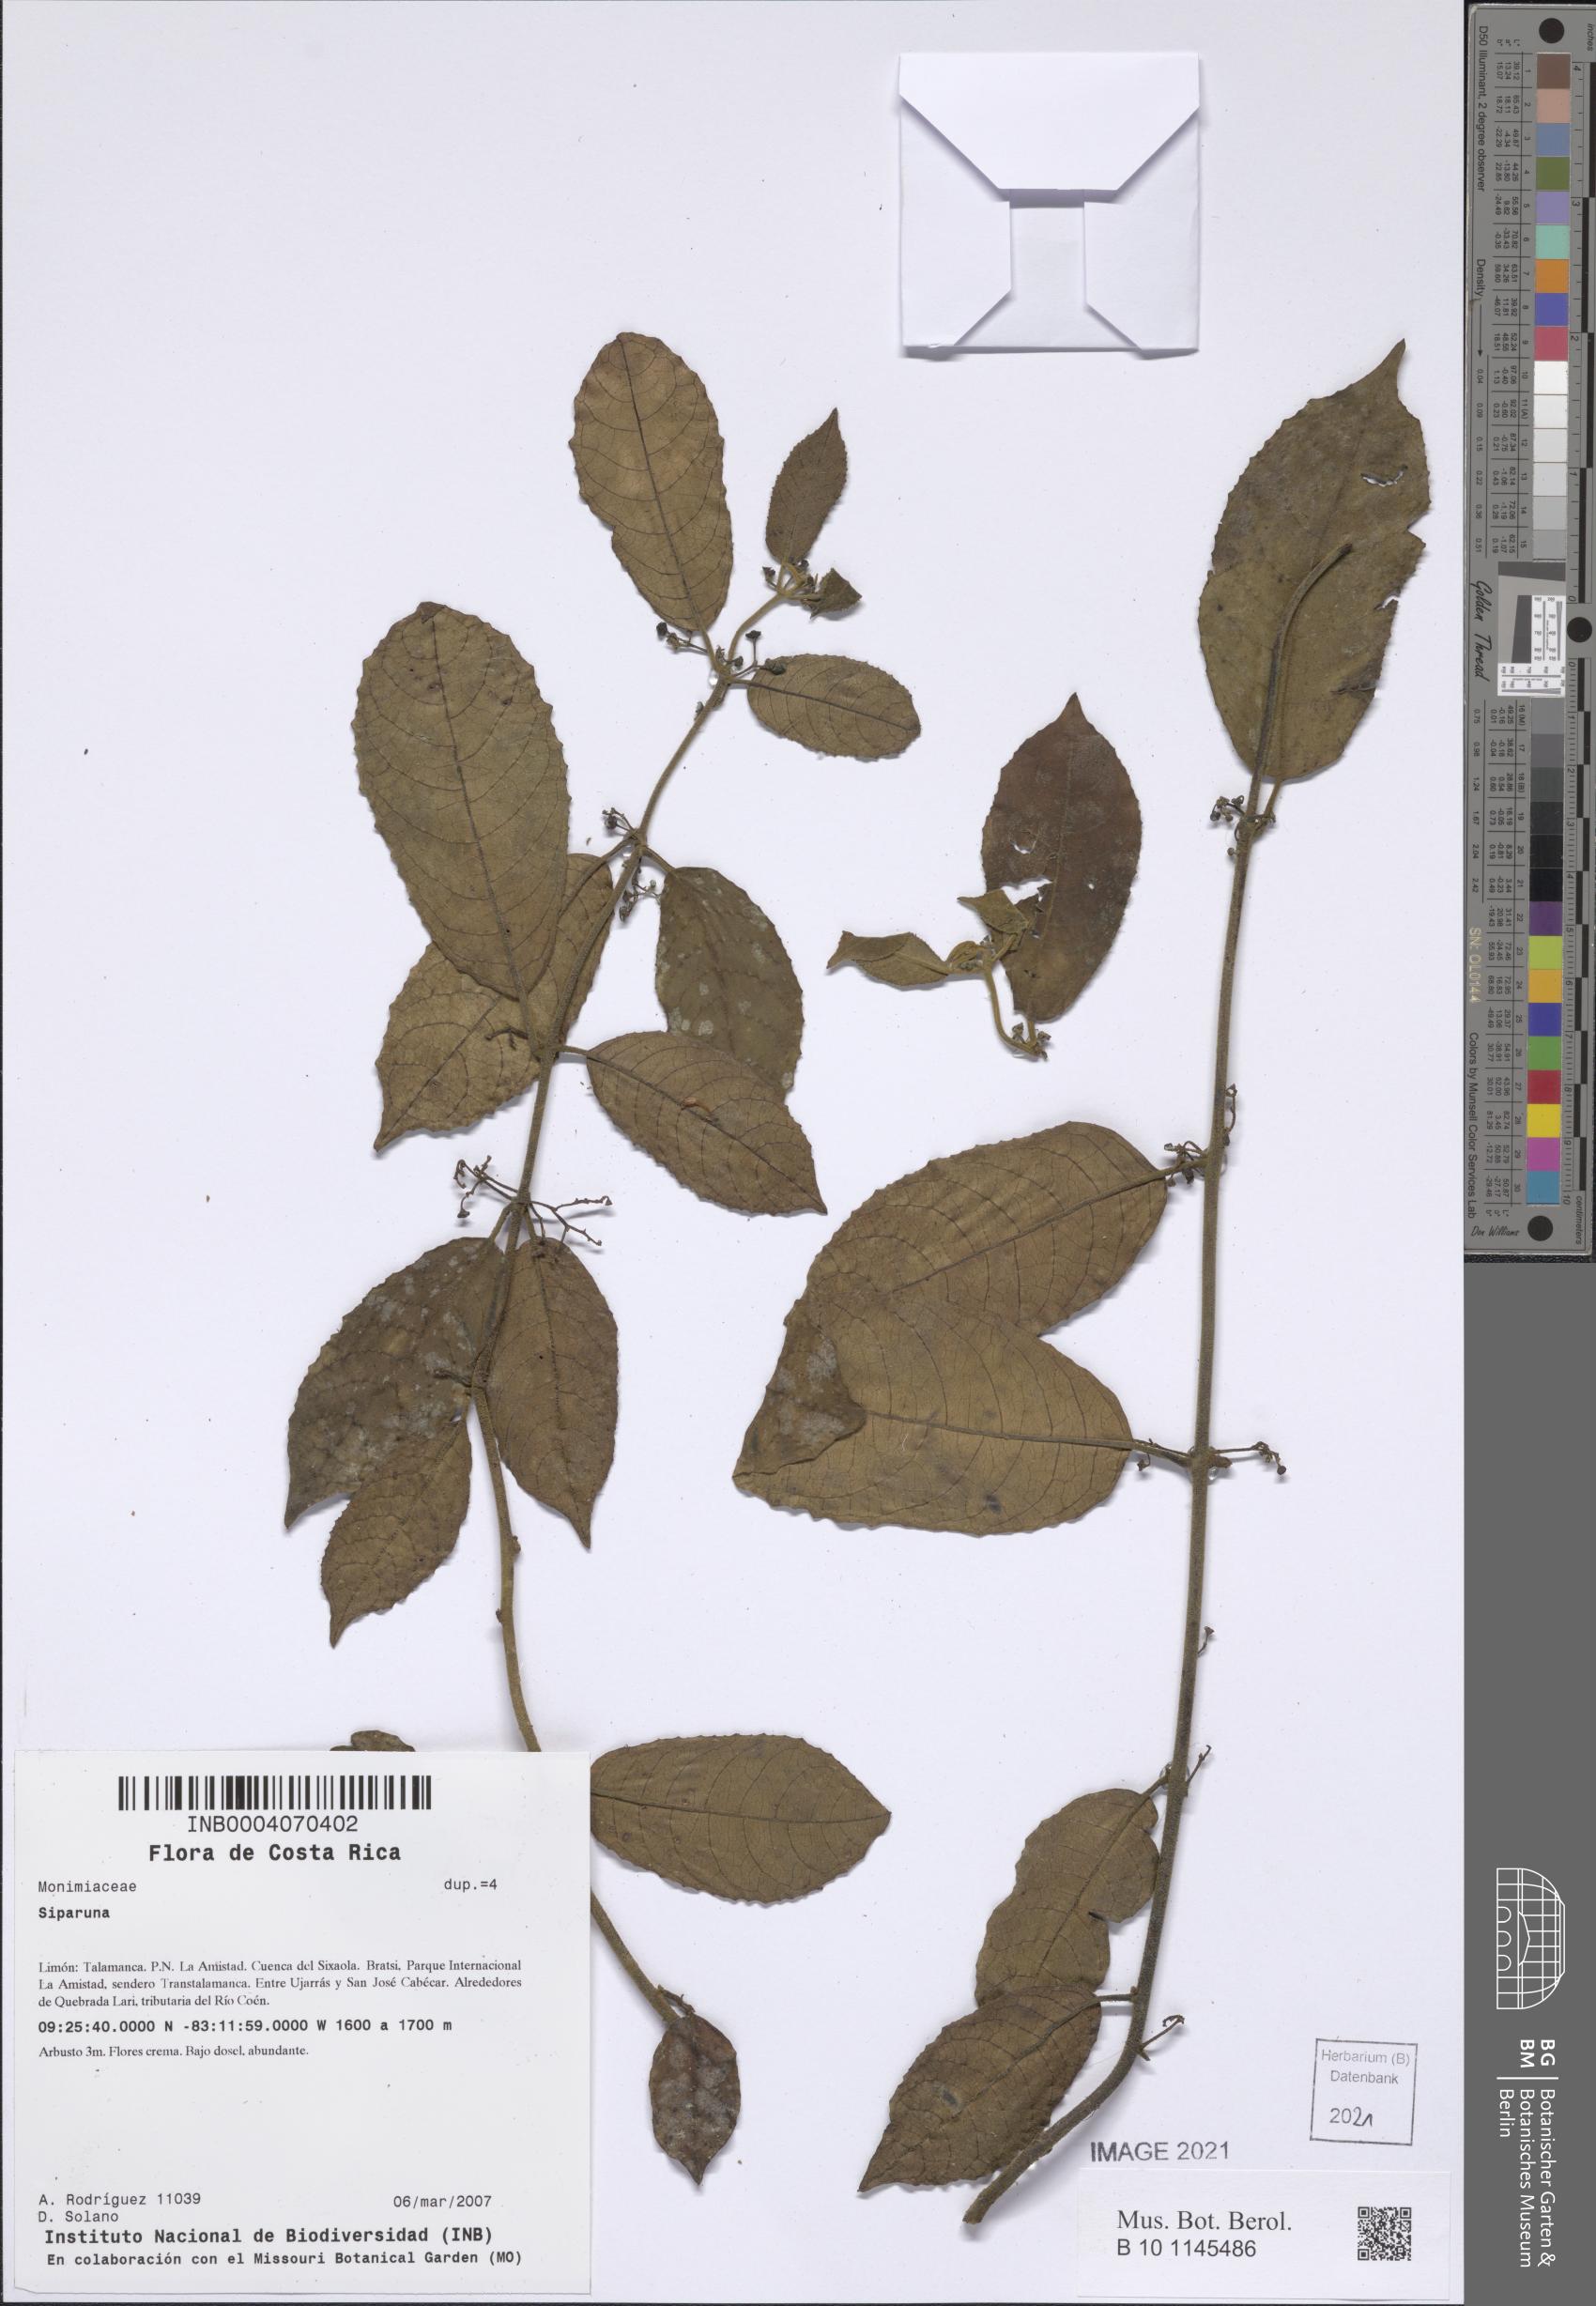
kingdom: Plantae
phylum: Tracheophyta
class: Magnoliopsida
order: Laurales
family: Siparunaceae
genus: Siparuna
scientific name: Siparuna
